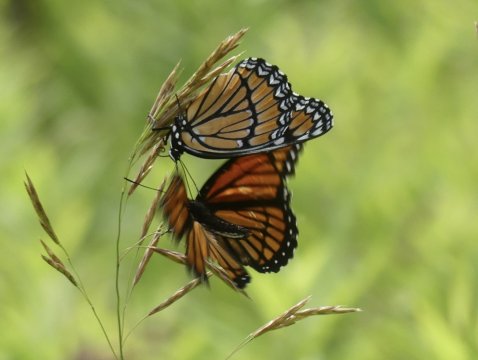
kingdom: Animalia
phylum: Arthropoda
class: Insecta
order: Lepidoptera
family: Nymphalidae
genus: Limenitis
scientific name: Limenitis archippus
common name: Viceroy
